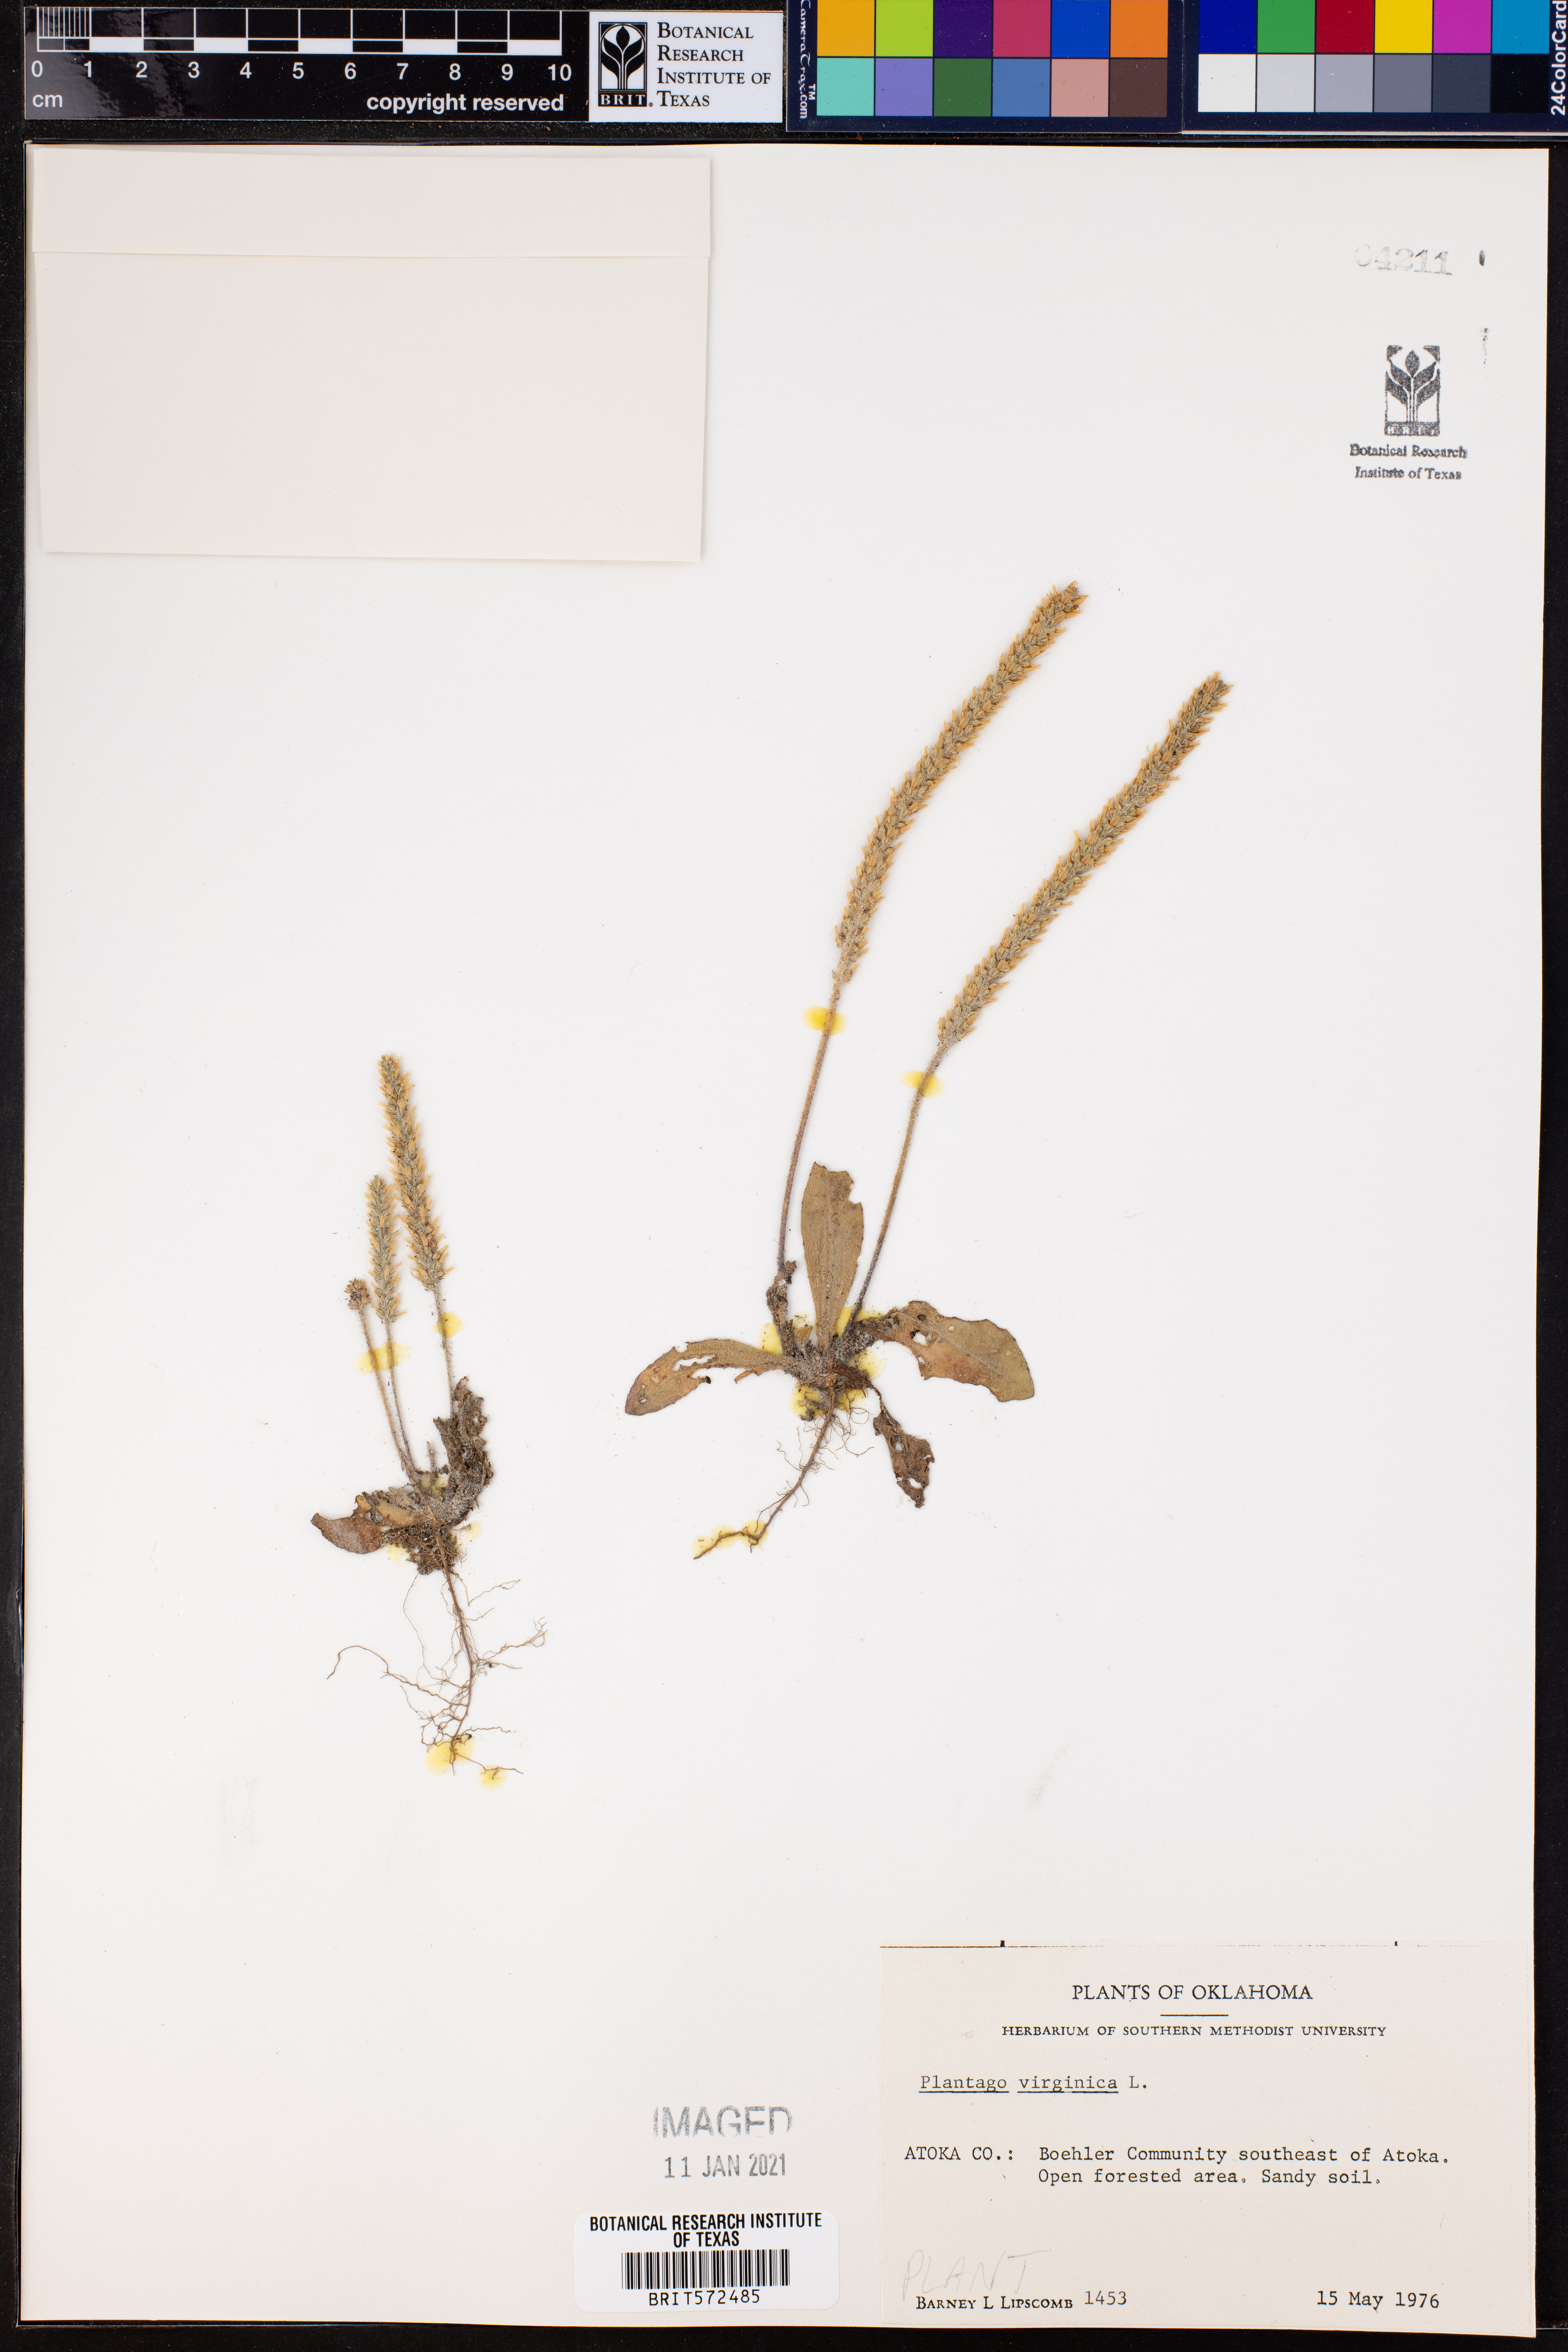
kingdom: Plantae
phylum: Tracheophyta
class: Magnoliopsida
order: Lamiales
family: Plantaginaceae
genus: Plantago
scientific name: Plantago virginica
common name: Hoary plantain
